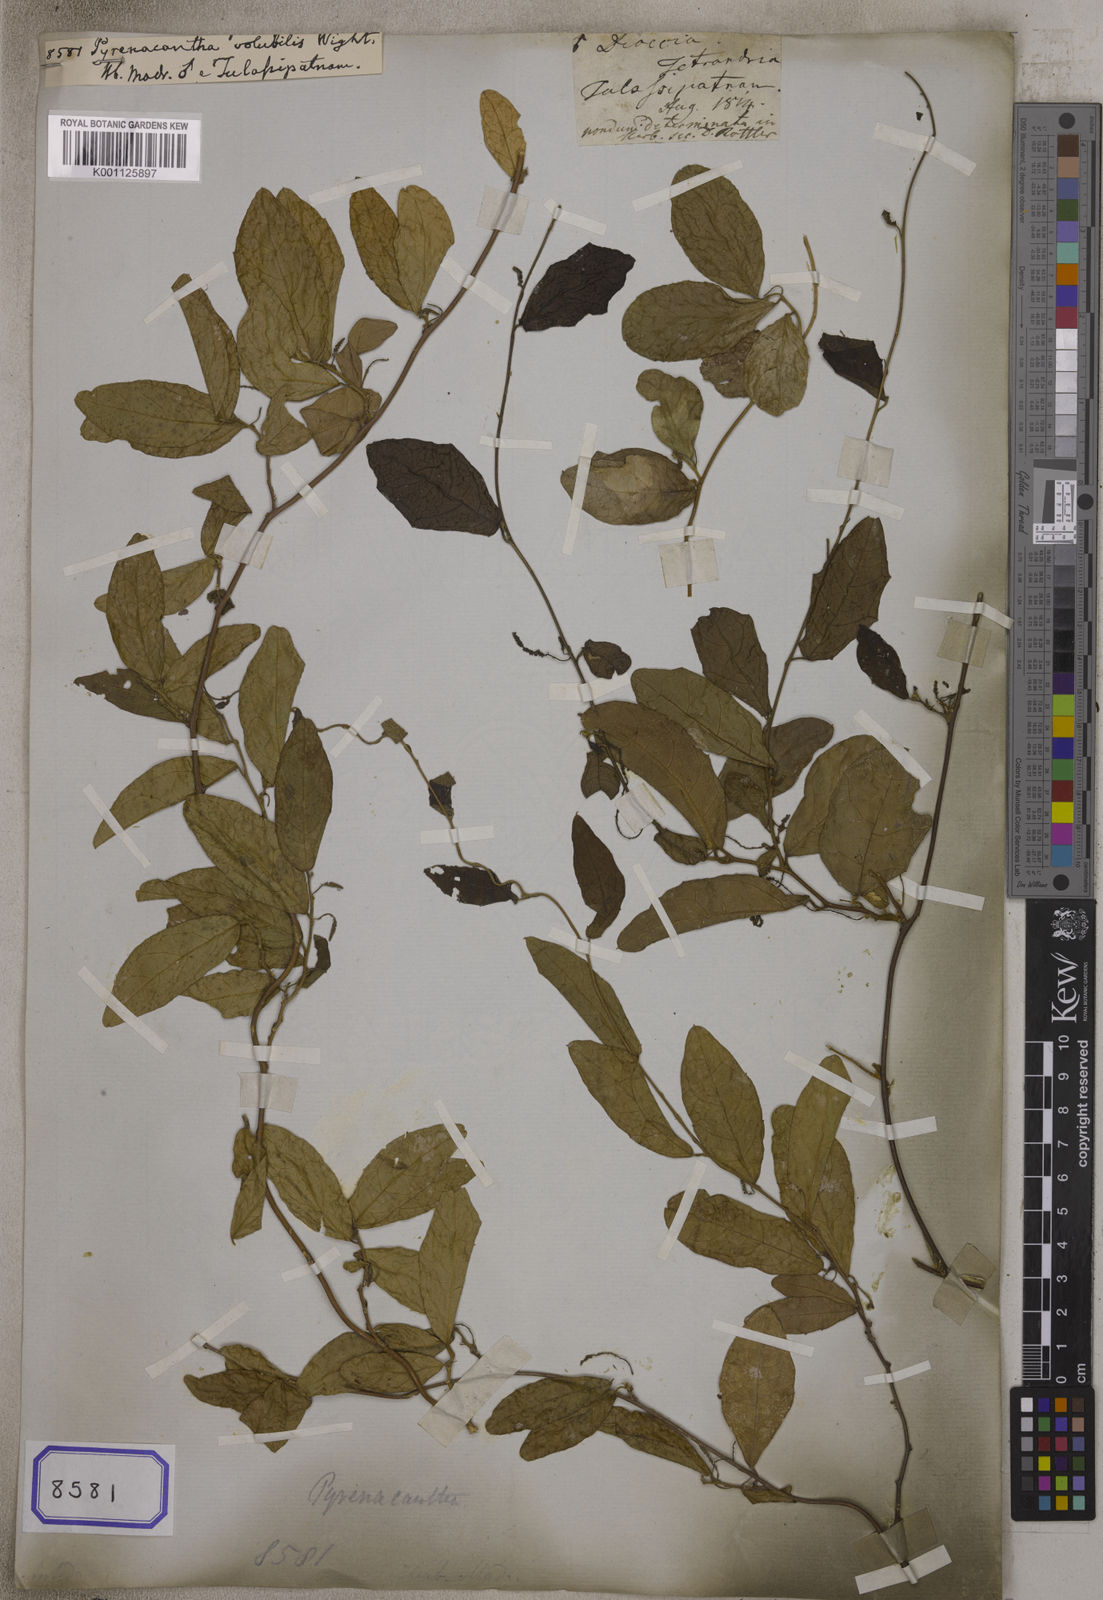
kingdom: Plantae
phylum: Tracheophyta
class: Magnoliopsida
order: Icacinales
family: Icacinaceae
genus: Pyrenacantha
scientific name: Pyrenacantha volubilis
